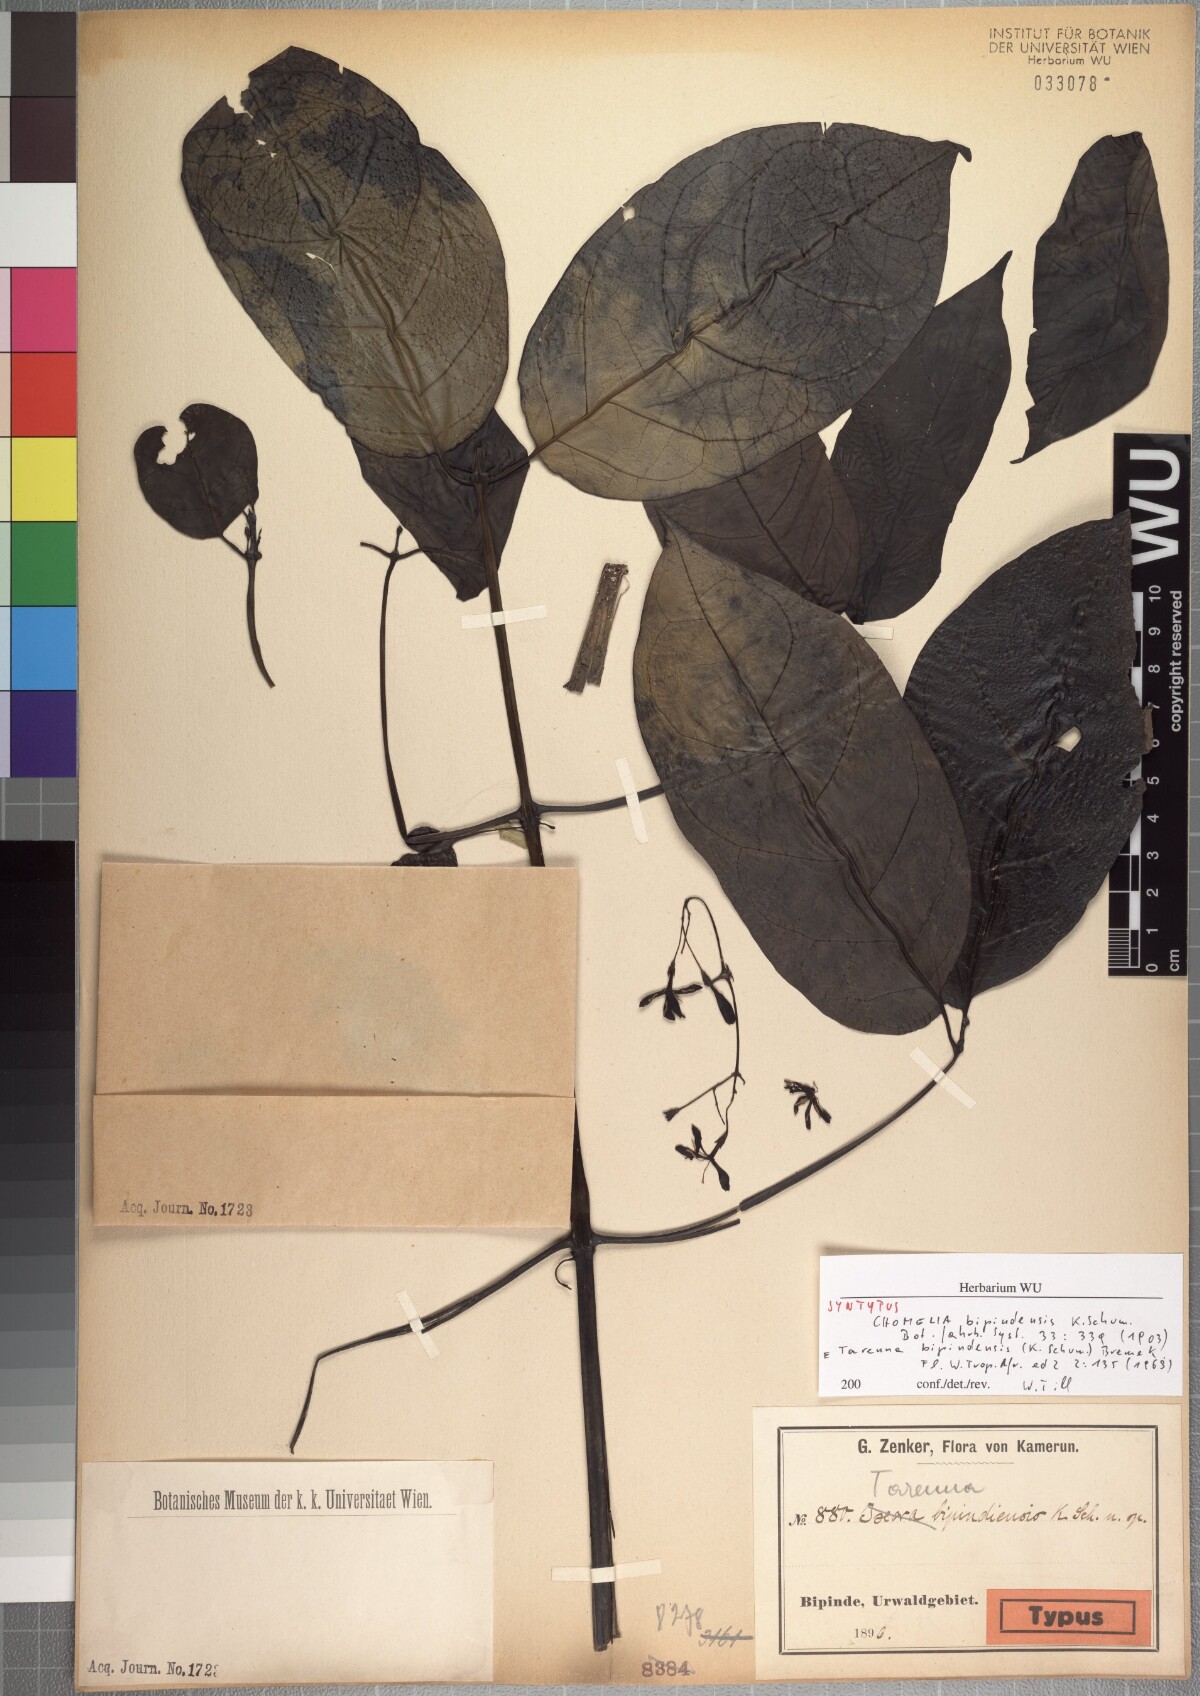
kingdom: Plantae
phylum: Tracheophyta
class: Magnoliopsida
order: Gentianales
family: Rubiaceae
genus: Tarenna
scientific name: Tarenna bipindensis
